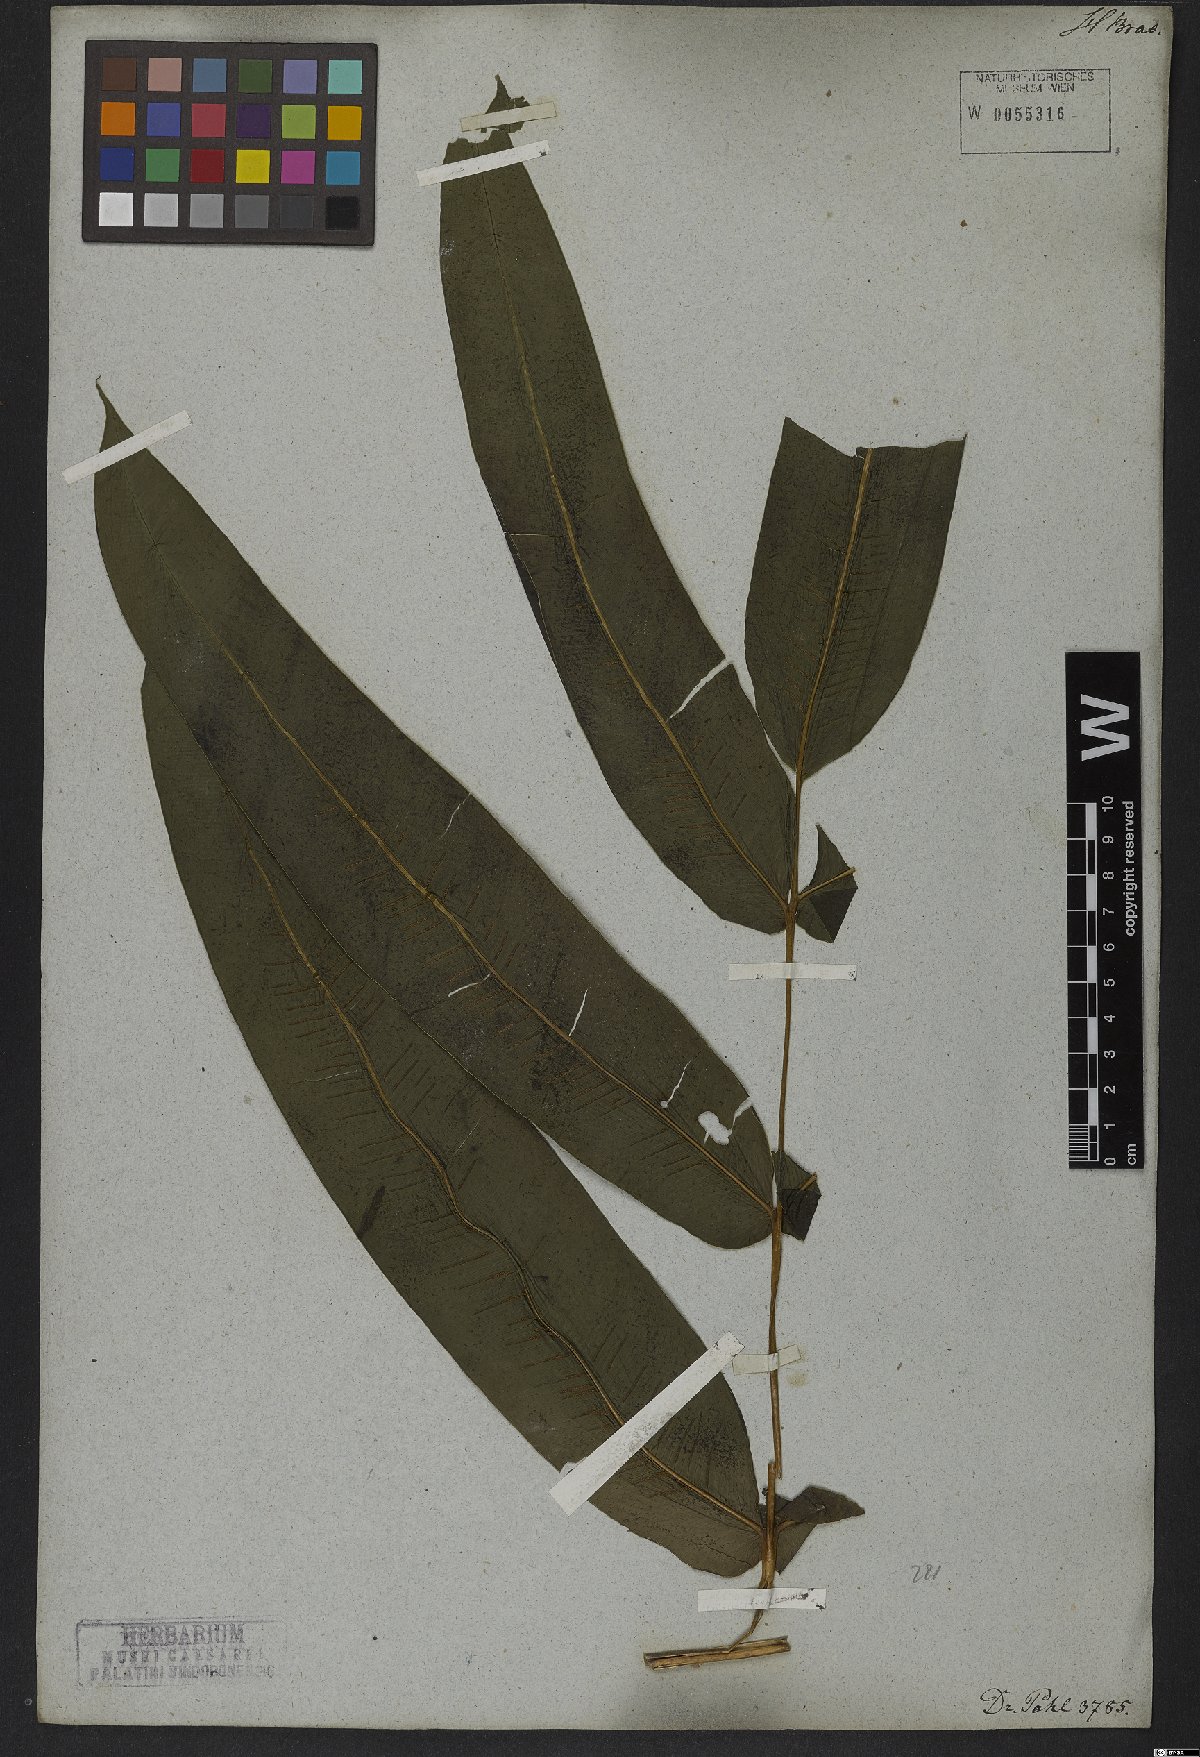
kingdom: Plantae
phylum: Tracheophyta
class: Polypodiopsida
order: Polypodiales
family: Hemidictyaceae
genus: Hemidictyum
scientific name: Hemidictyum marginatum
